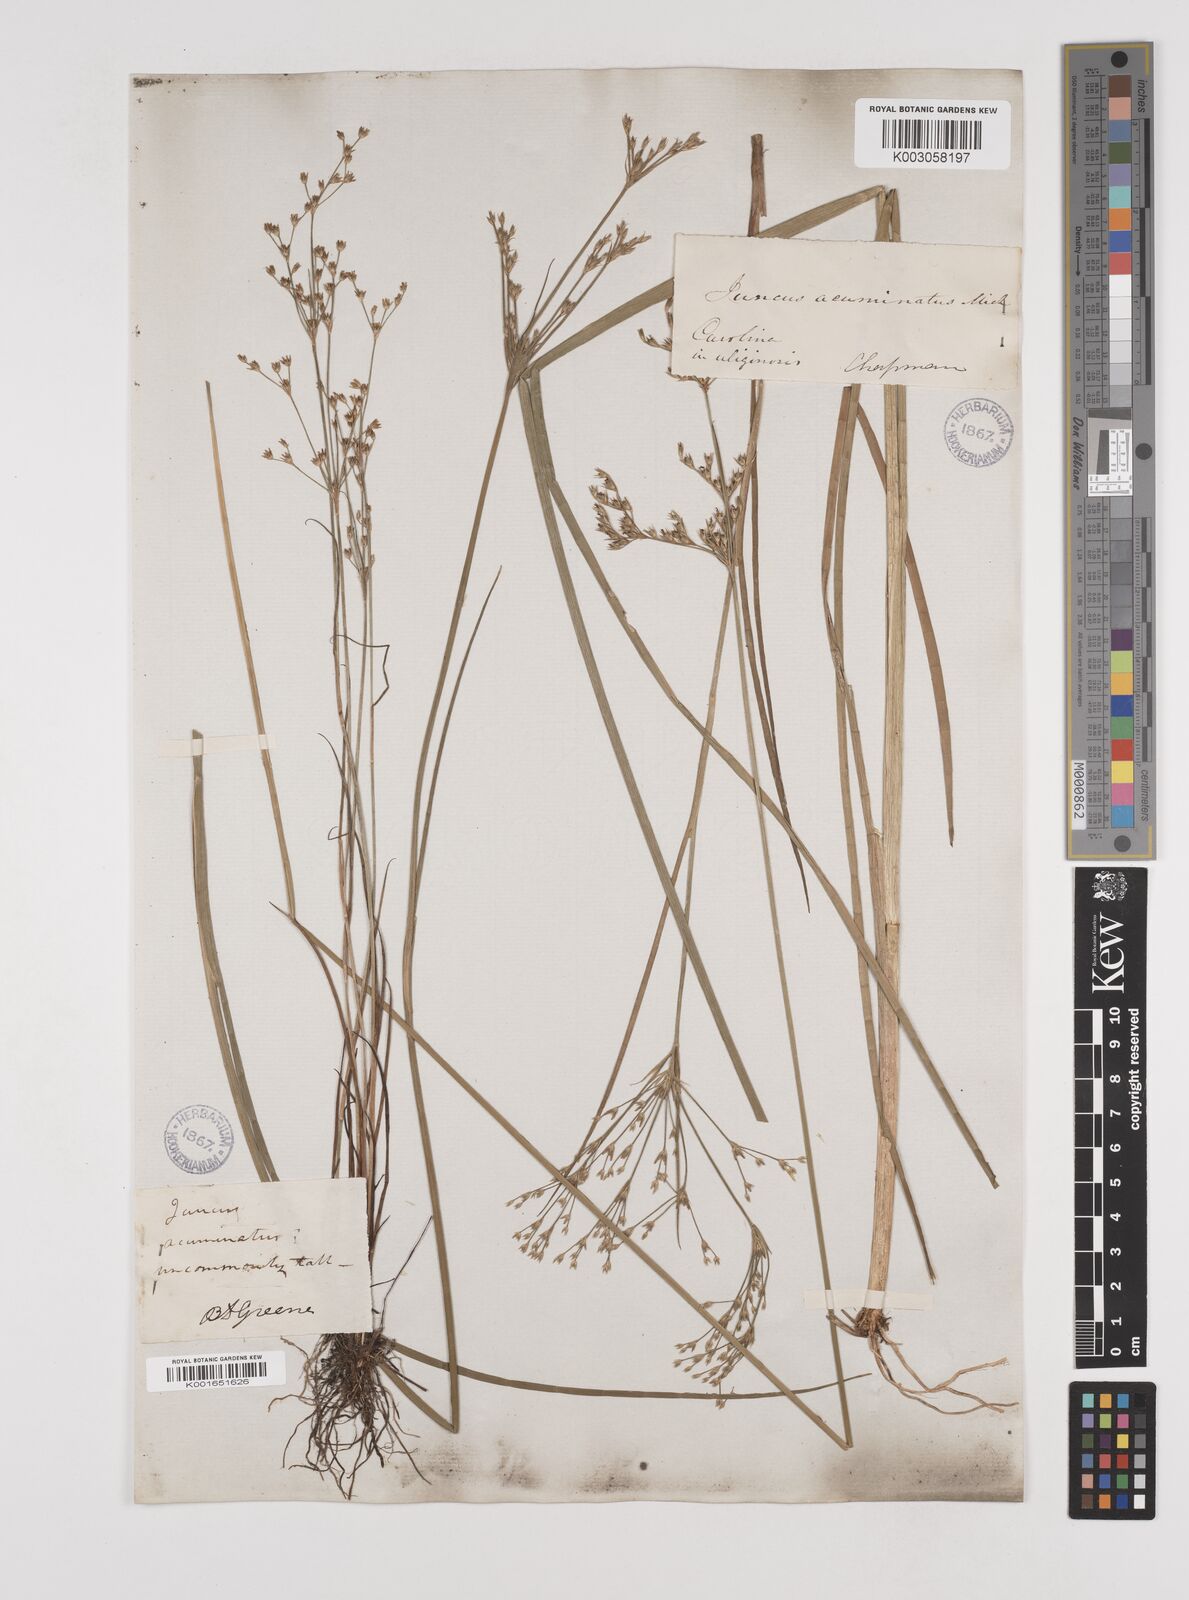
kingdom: Plantae
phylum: Tracheophyta
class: Liliopsida
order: Poales
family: Juncaceae
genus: Juncus
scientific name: Juncus
